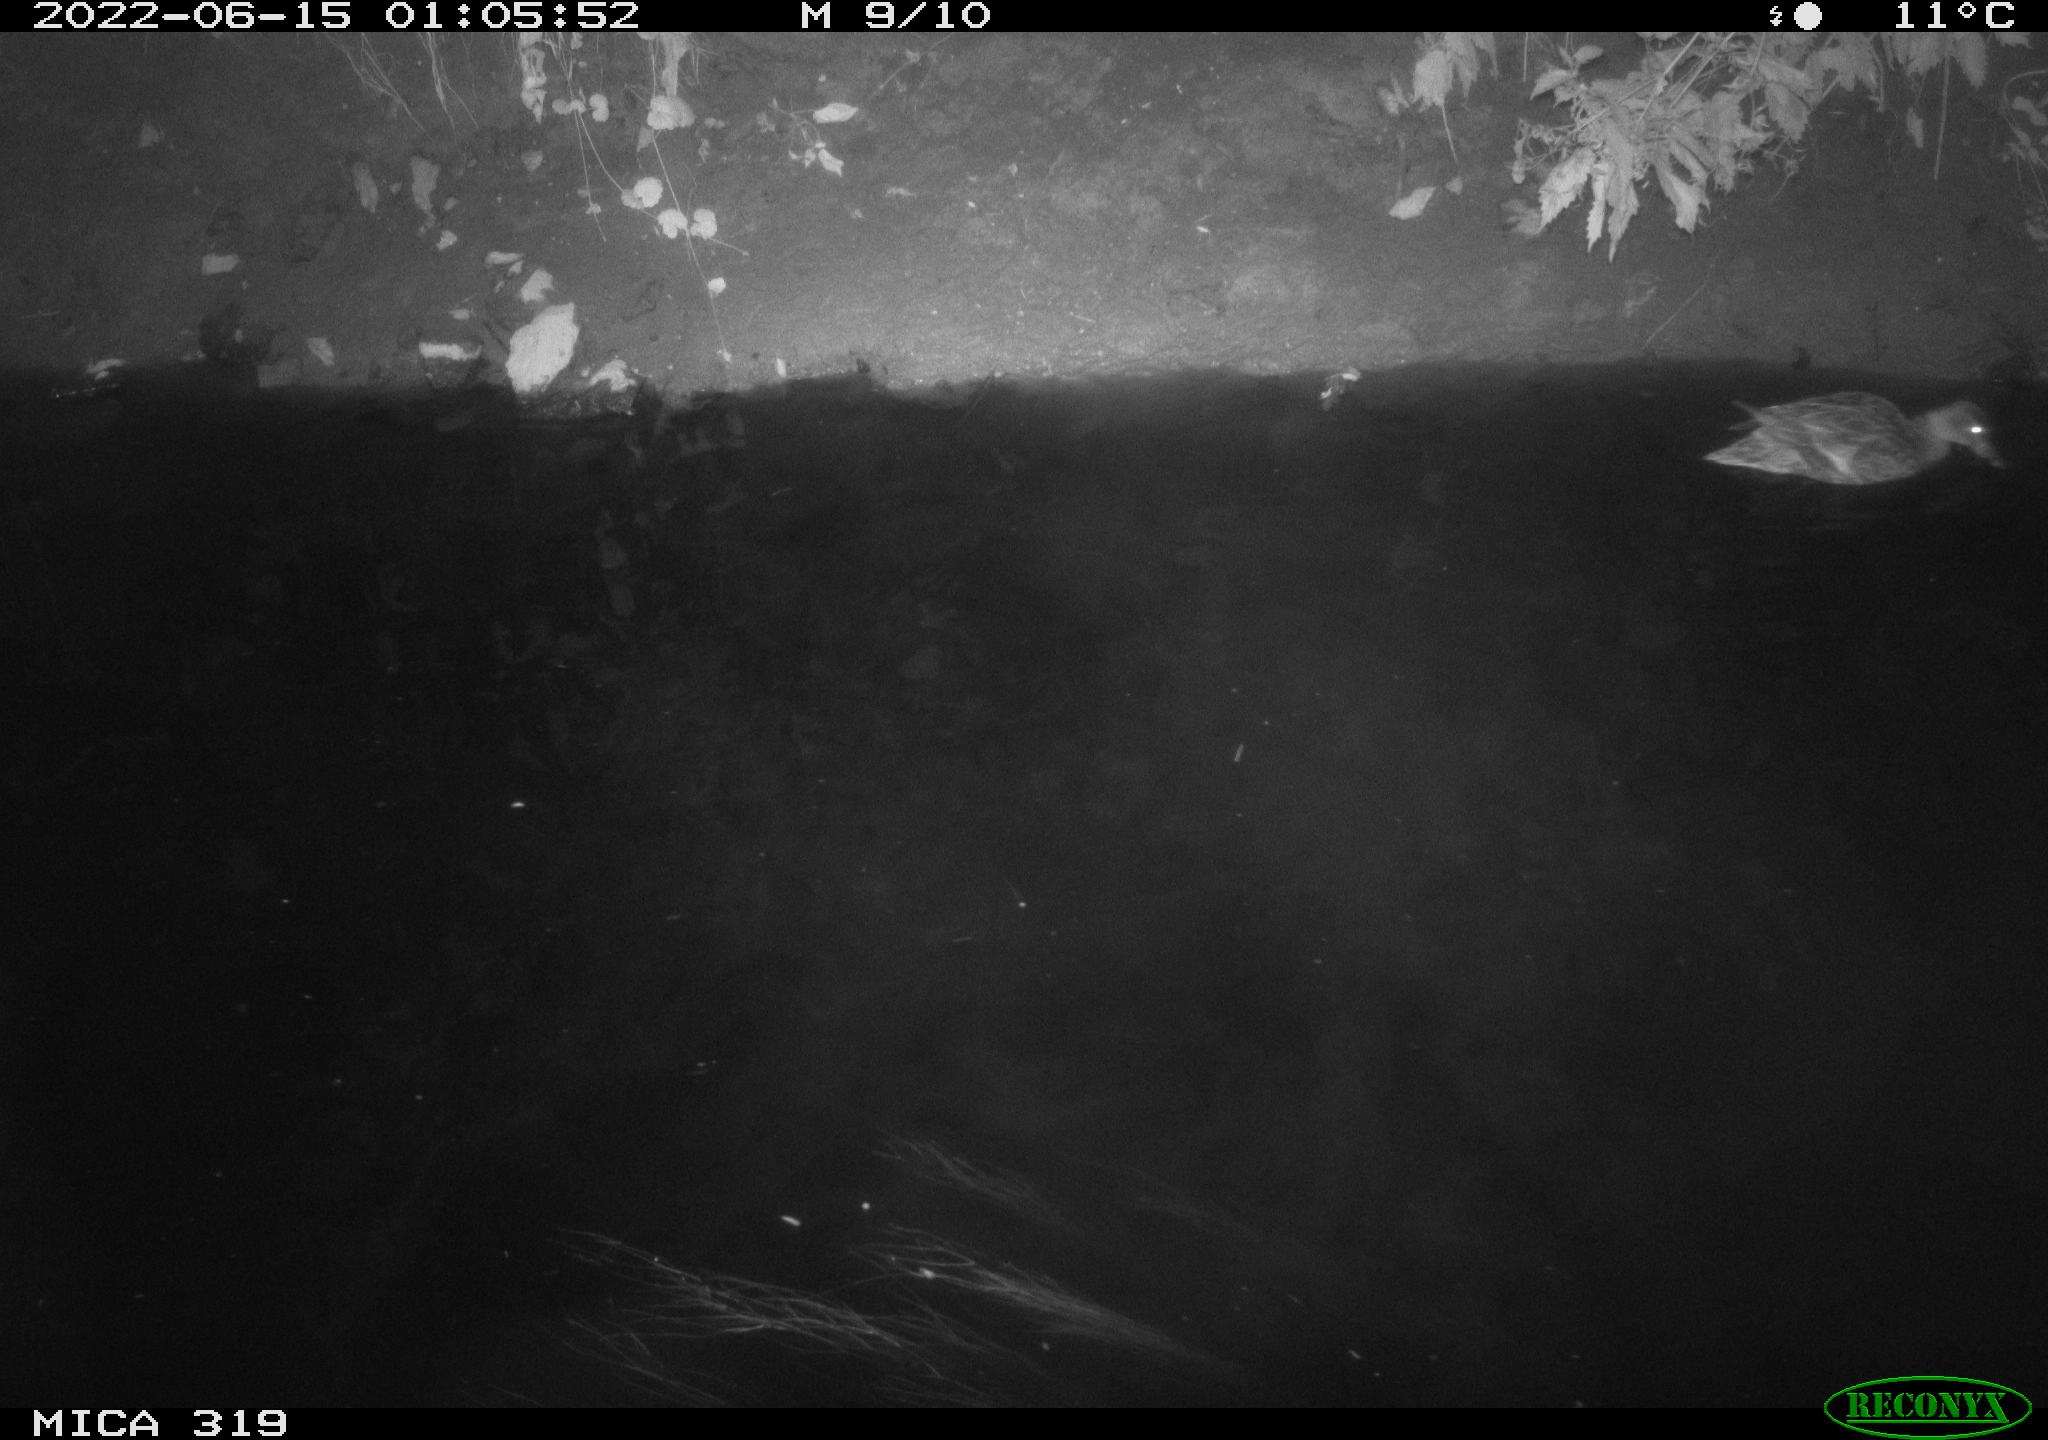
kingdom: Animalia
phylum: Chordata
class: Aves
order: Anseriformes
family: Anatidae
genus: Anas
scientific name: Anas
